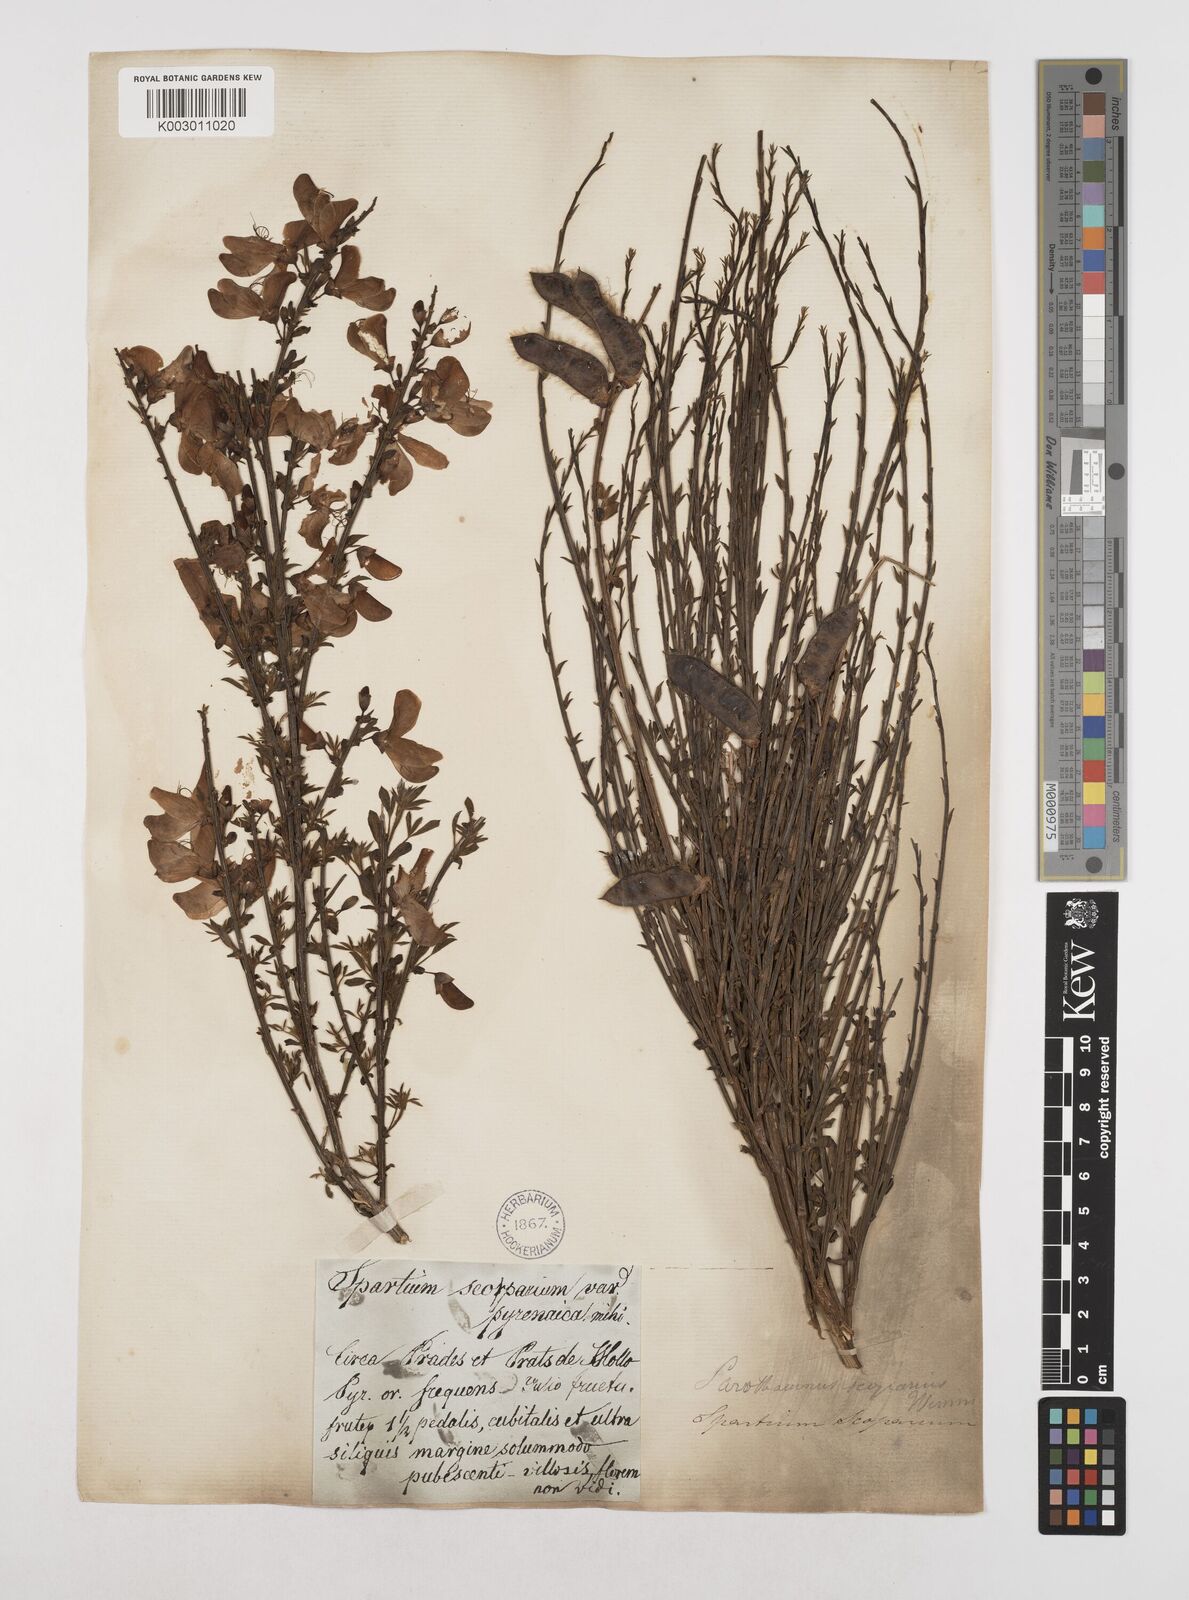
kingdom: Plantae
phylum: Tracheophyta
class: Magnoliopsida
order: Fabales
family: Fabaceae
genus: Cytisus
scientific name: Cytisus scoparius
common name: Scotch broom
